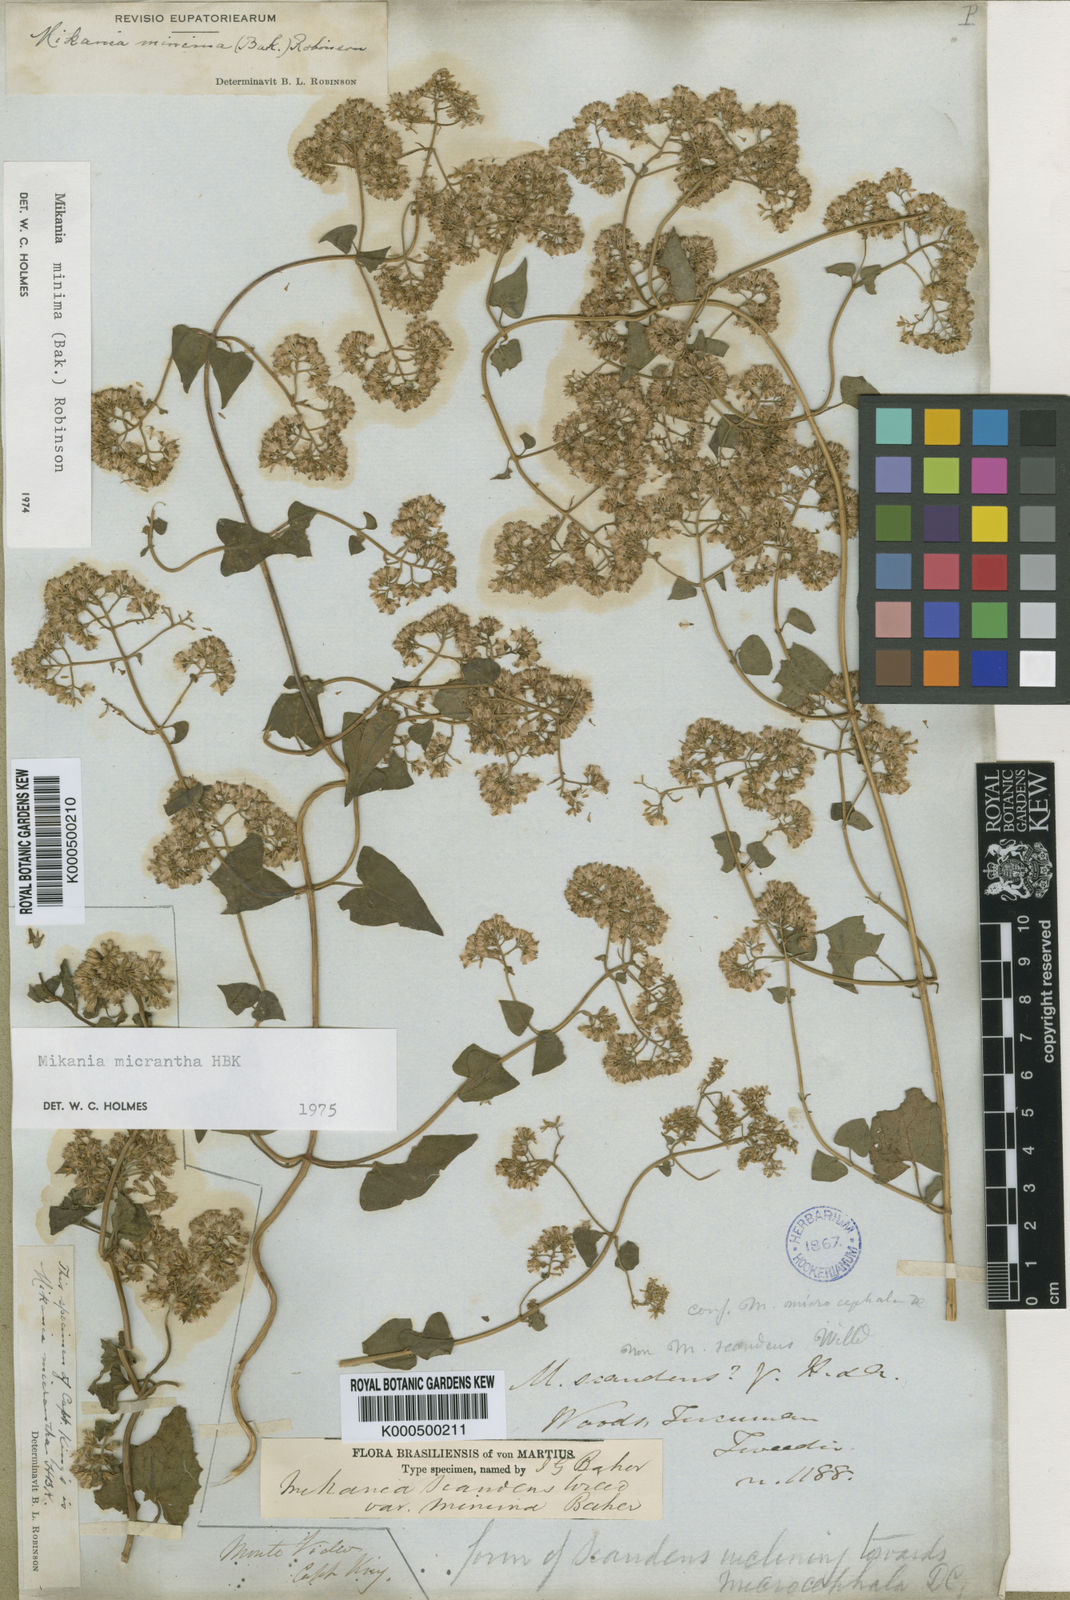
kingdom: Plantae
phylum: Tracheophyta
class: Magnoliopsida
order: Asterales
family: Asteraceae
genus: Mikania
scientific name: Mikania minima
